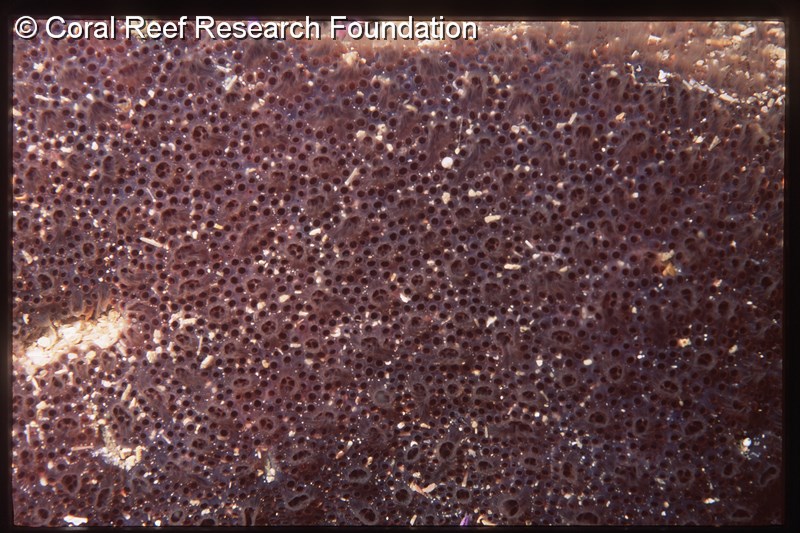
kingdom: Animalia
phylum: Chordata
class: Ascidiacea
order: Aplousobranchia
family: Polyclinidae
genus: Aplidium
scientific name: Aplidium
